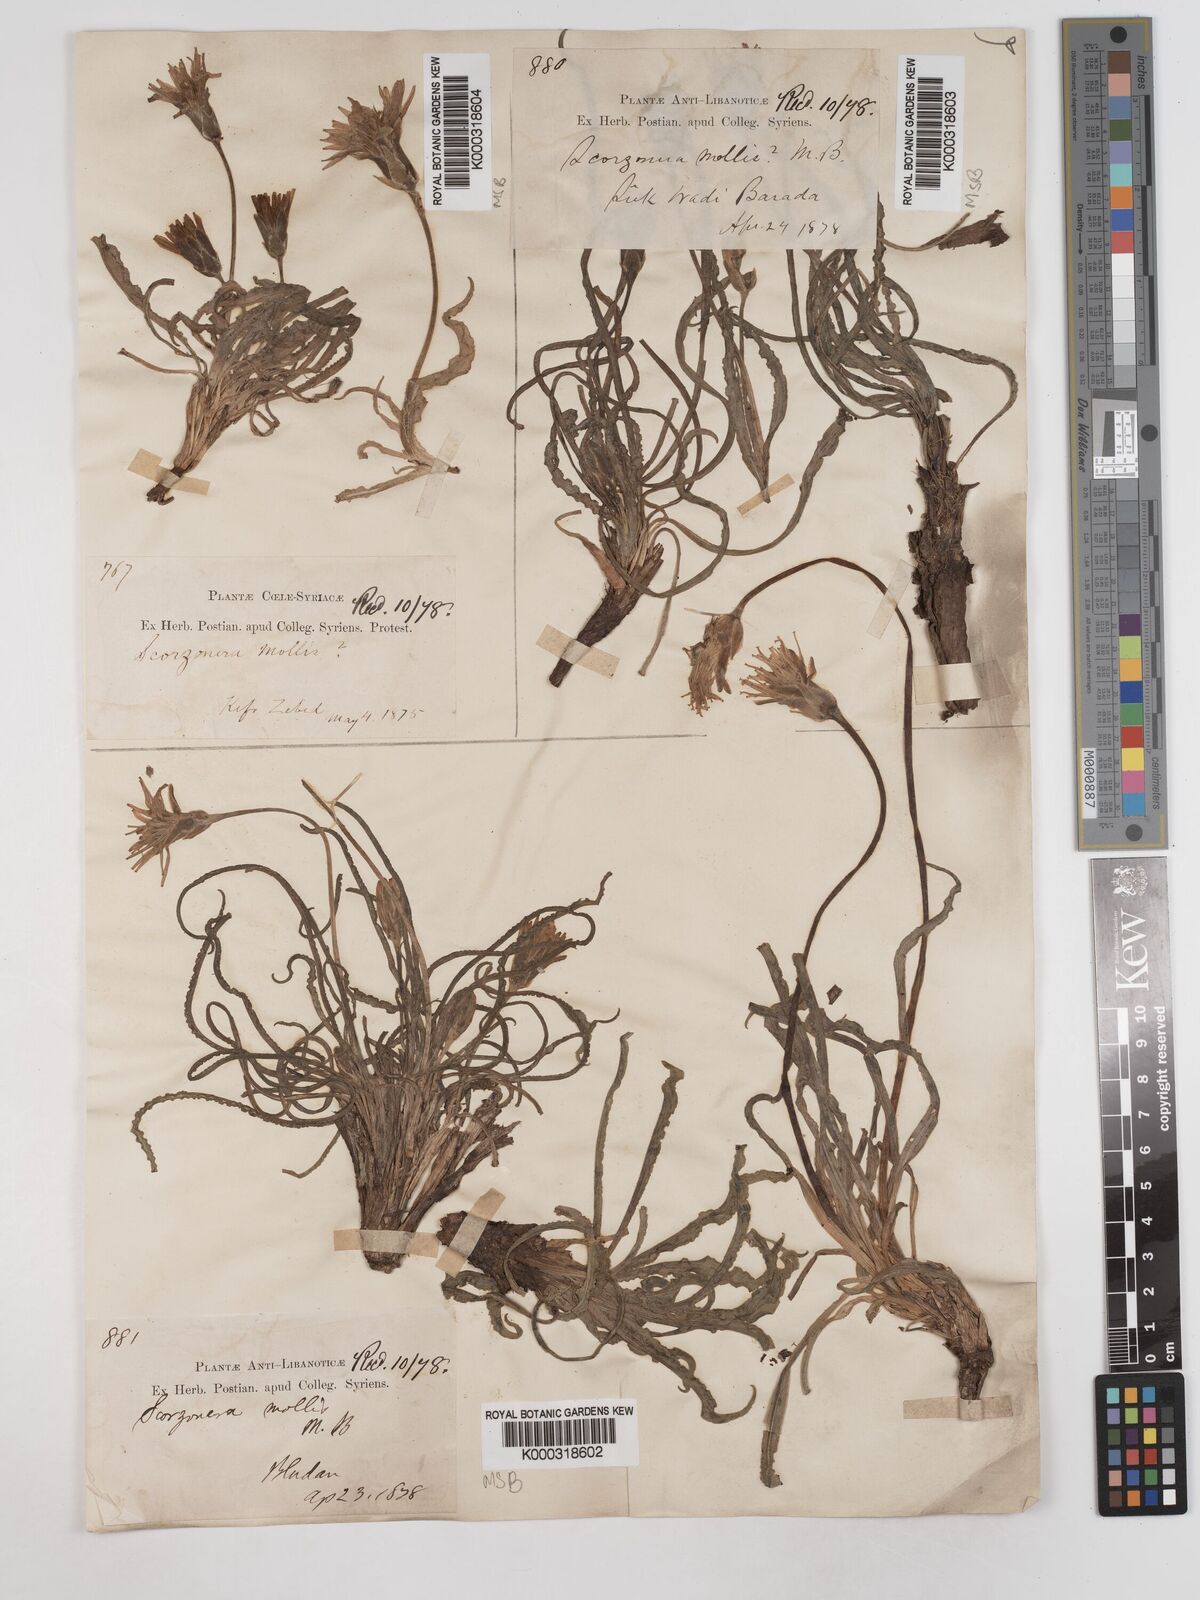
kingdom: Plantae
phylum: Tracheophyta
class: Magnoliopsida
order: Asterales
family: Asteraceae
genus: Candollea
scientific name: Candollea mollis
